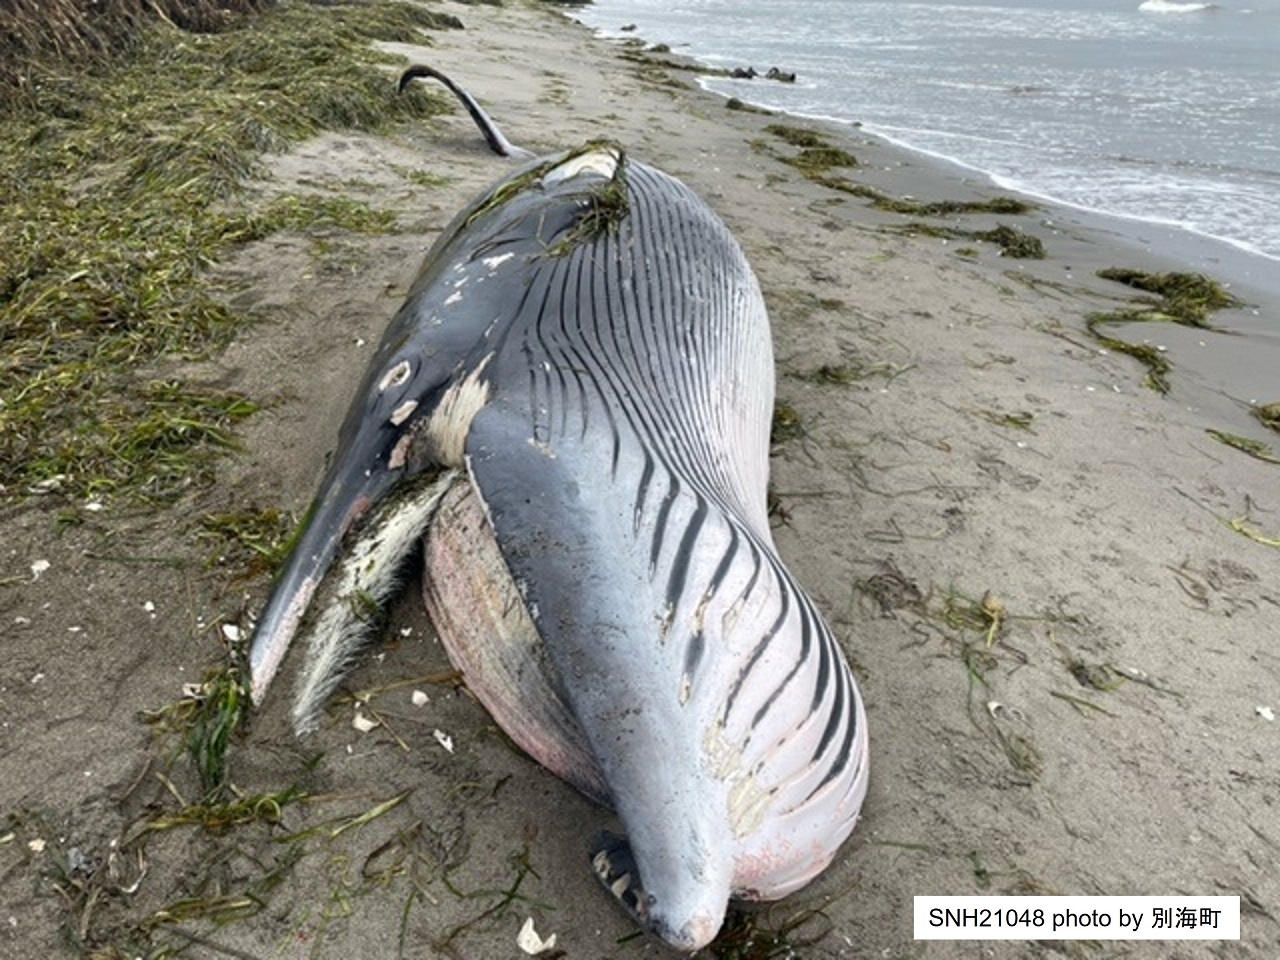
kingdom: Animalia
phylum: Chordata
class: Mammalia
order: Cetacea
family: Balaenopteridae
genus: Balaenoptera
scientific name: Balaenoptera acutorostrata
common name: Minke whale
